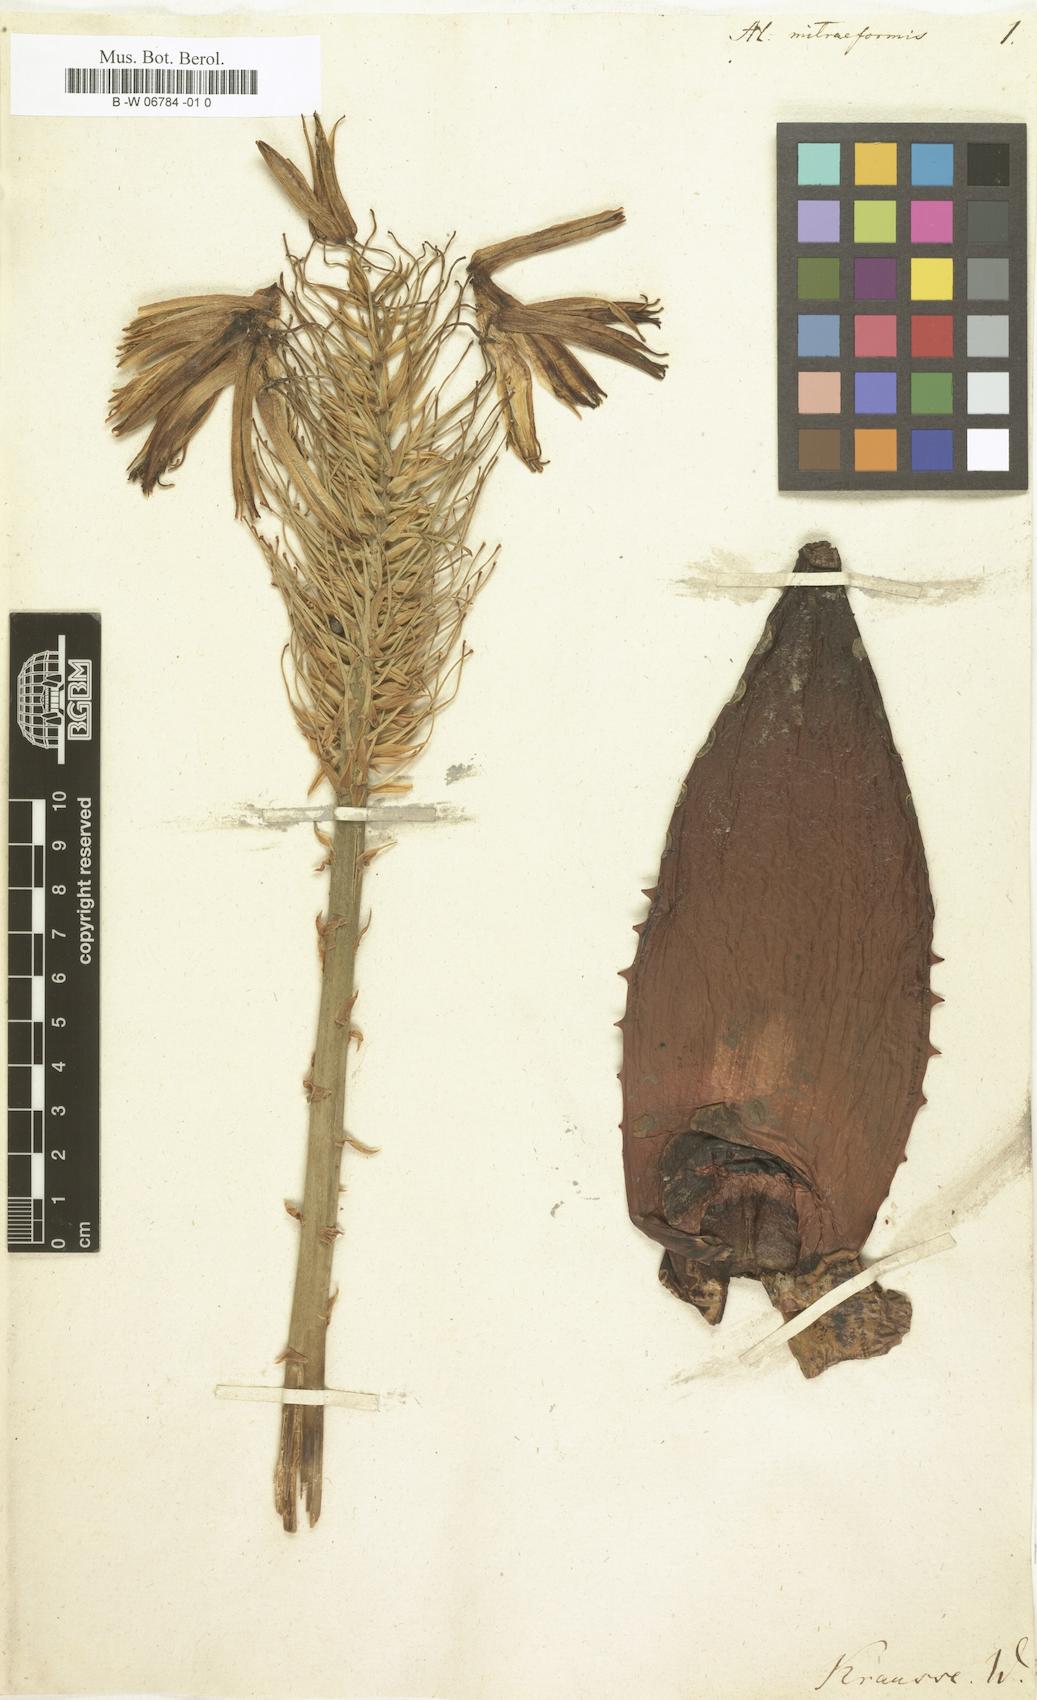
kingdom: Plantae
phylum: Tracheophyta
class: Liliopsida
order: Asparagales
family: Asphodelaceae
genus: Aloe
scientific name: Aloe mitraeformis
